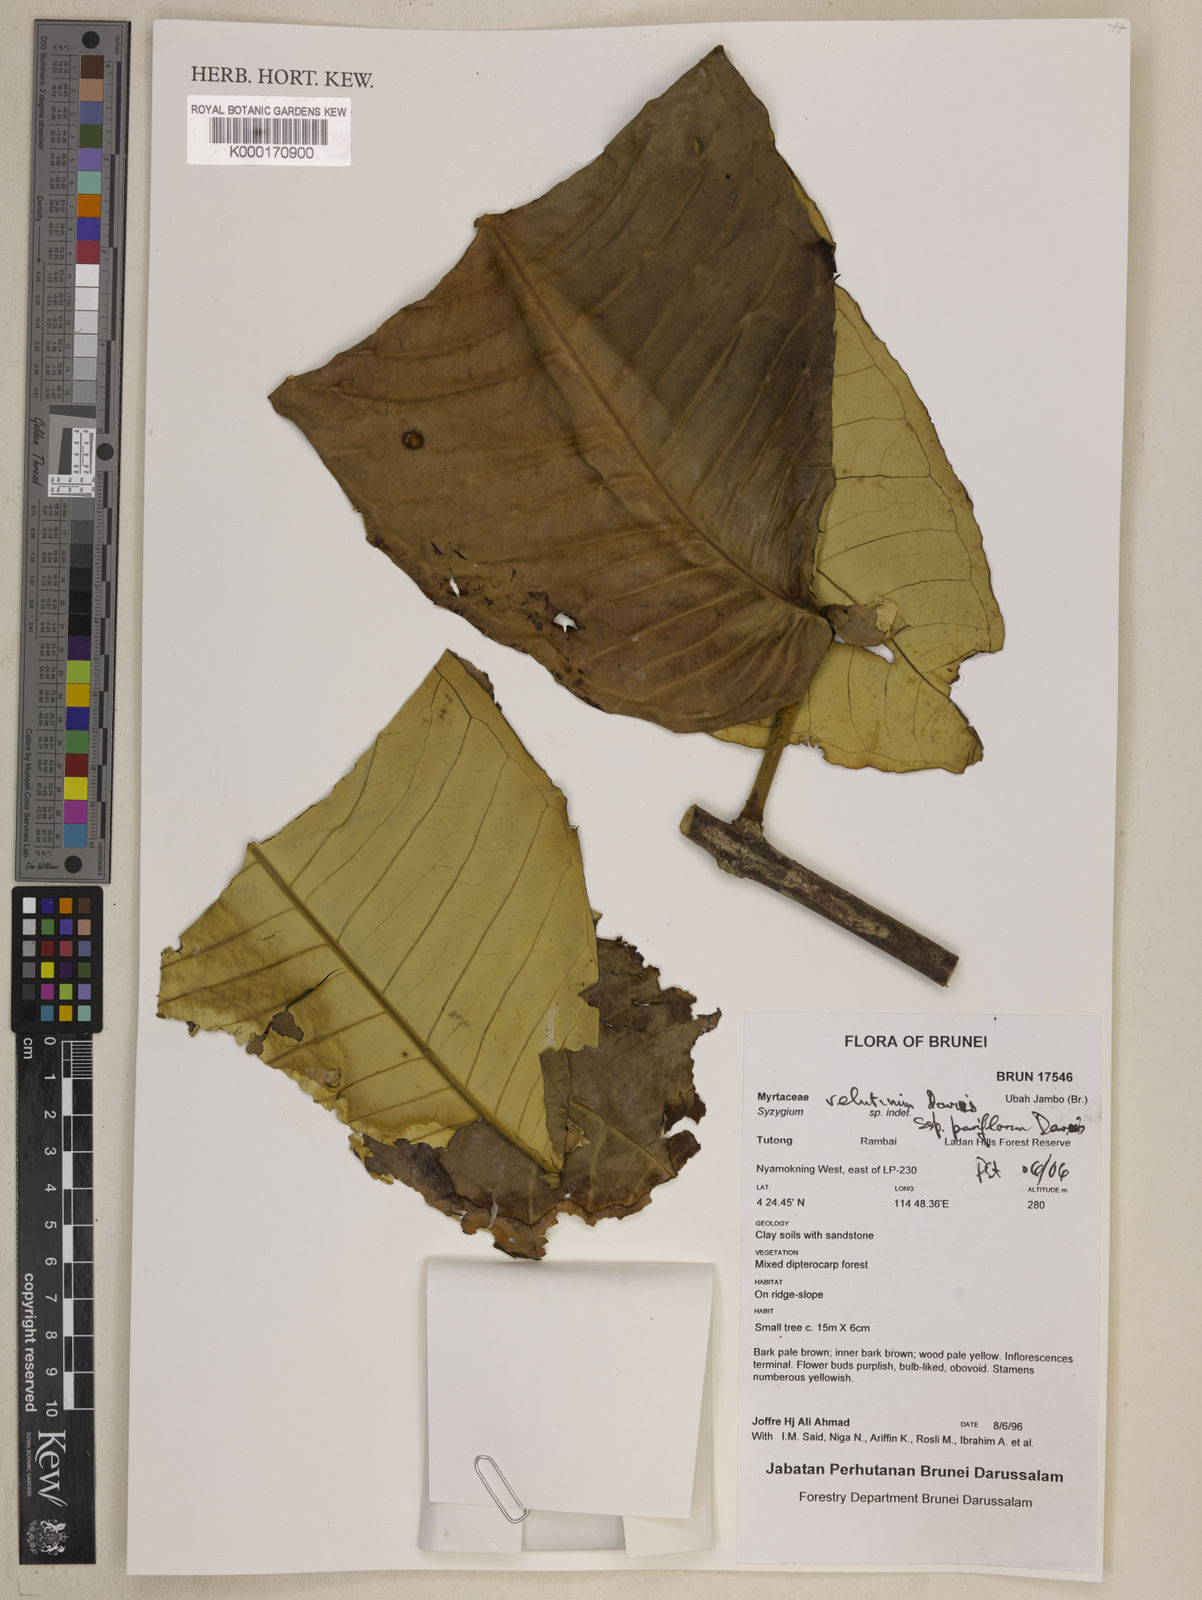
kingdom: Plantae
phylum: Tracheophyta
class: Magnoliopsida
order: Myrtales
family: Myrtaceae
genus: Syzygium
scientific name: Syzygium velutinum
